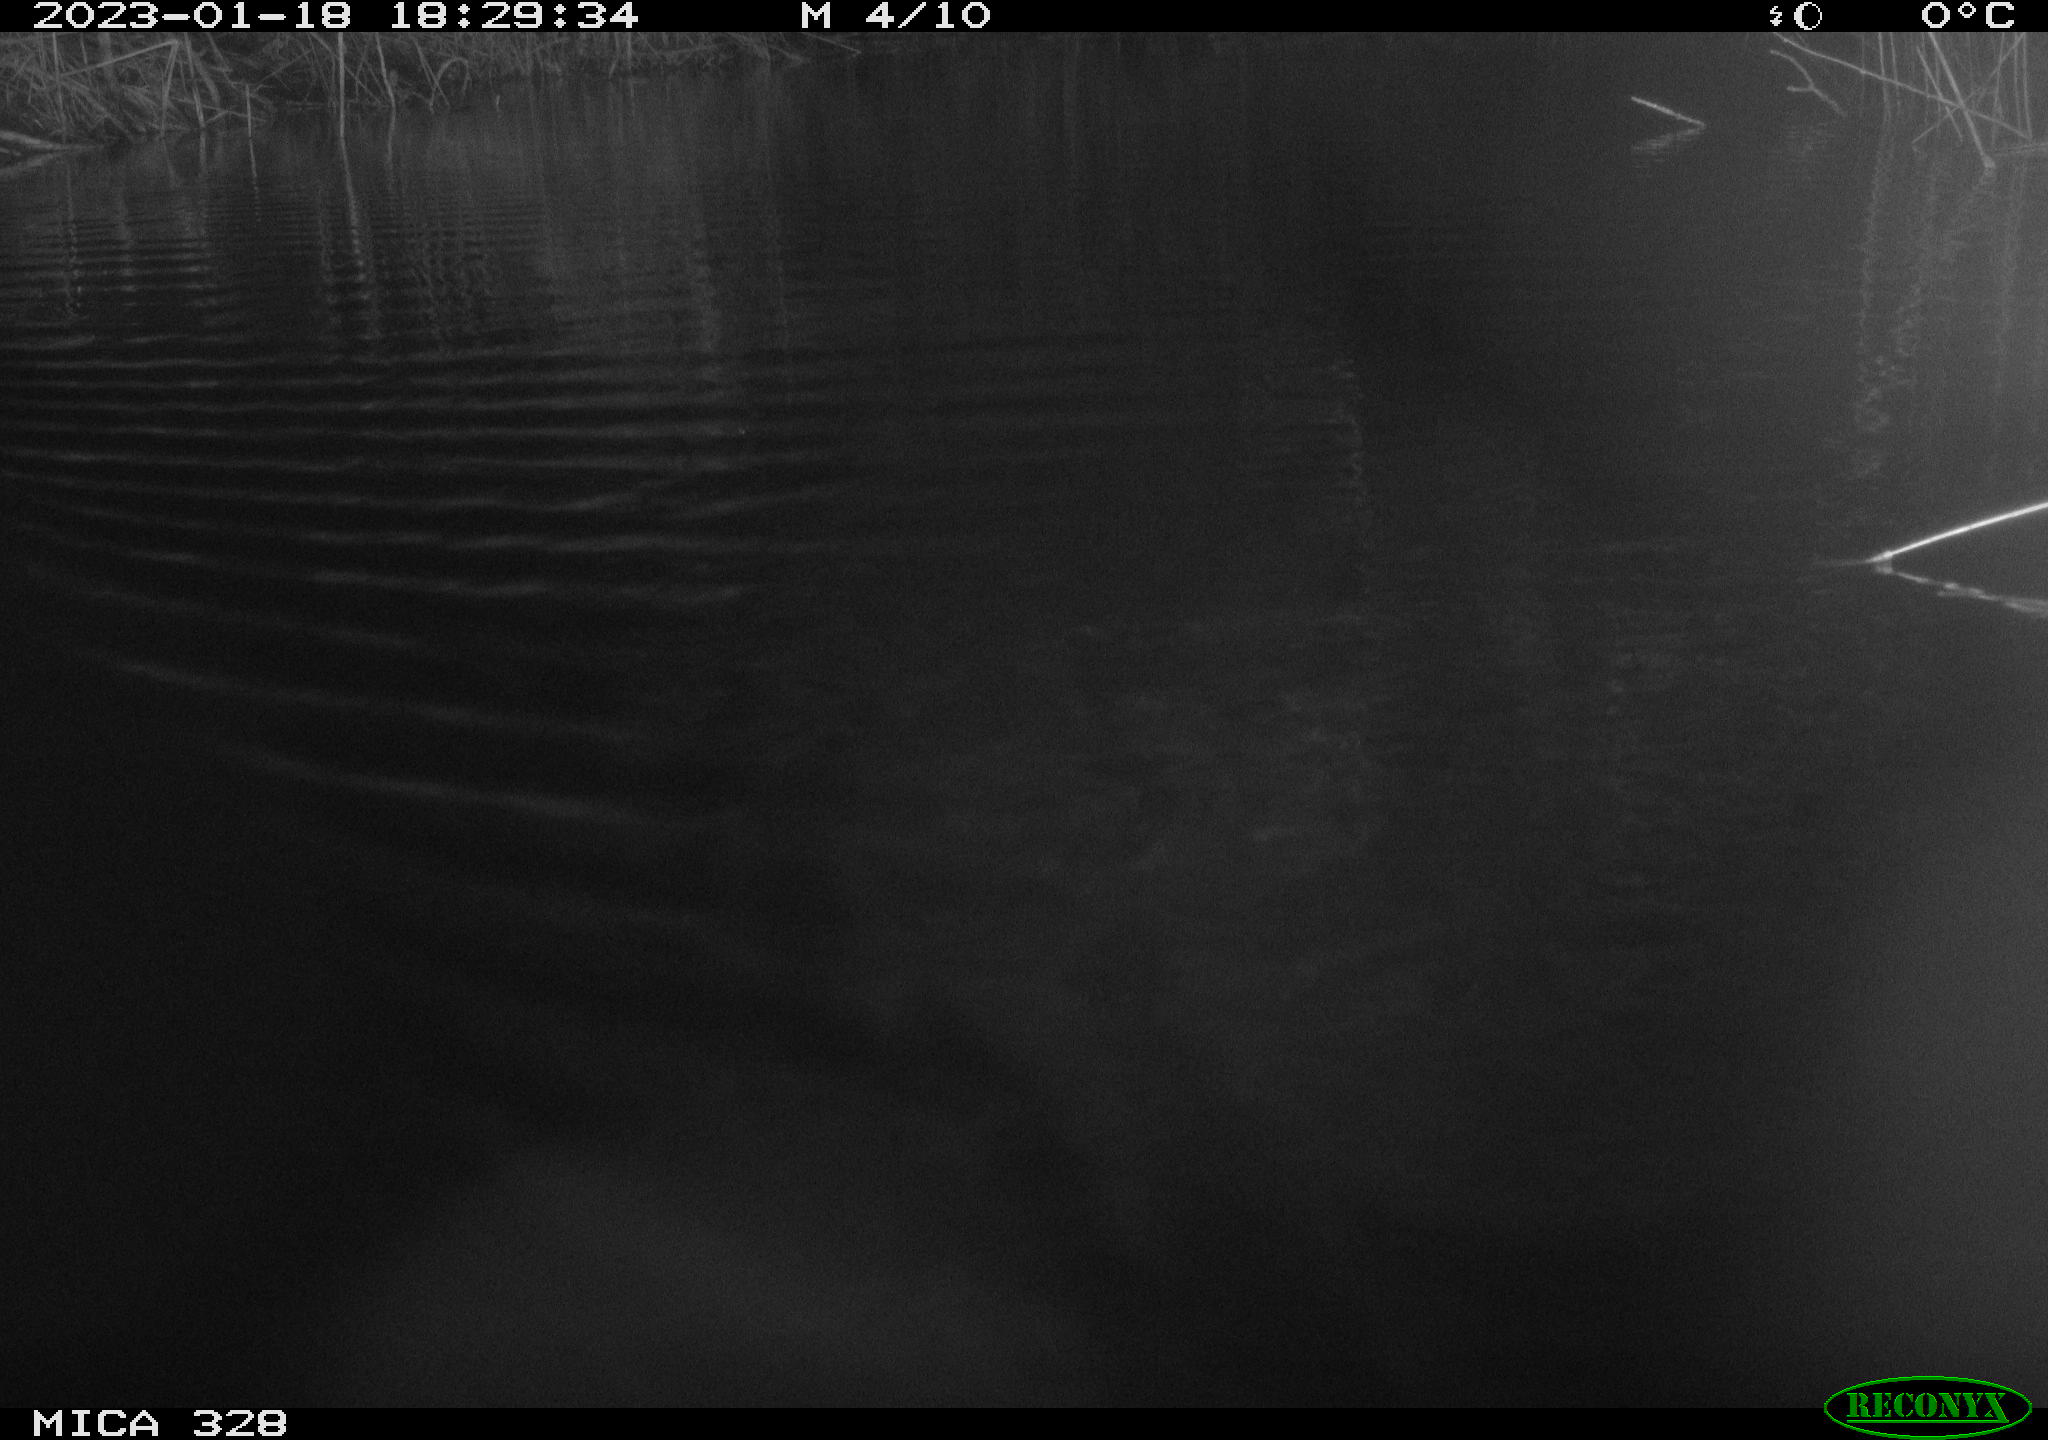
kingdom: Animalia
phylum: Chordata
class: Mammalia
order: Rodentia
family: Cricetidae
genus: Ondatra
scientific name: Ondatra zibethicus
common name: Muskrat
